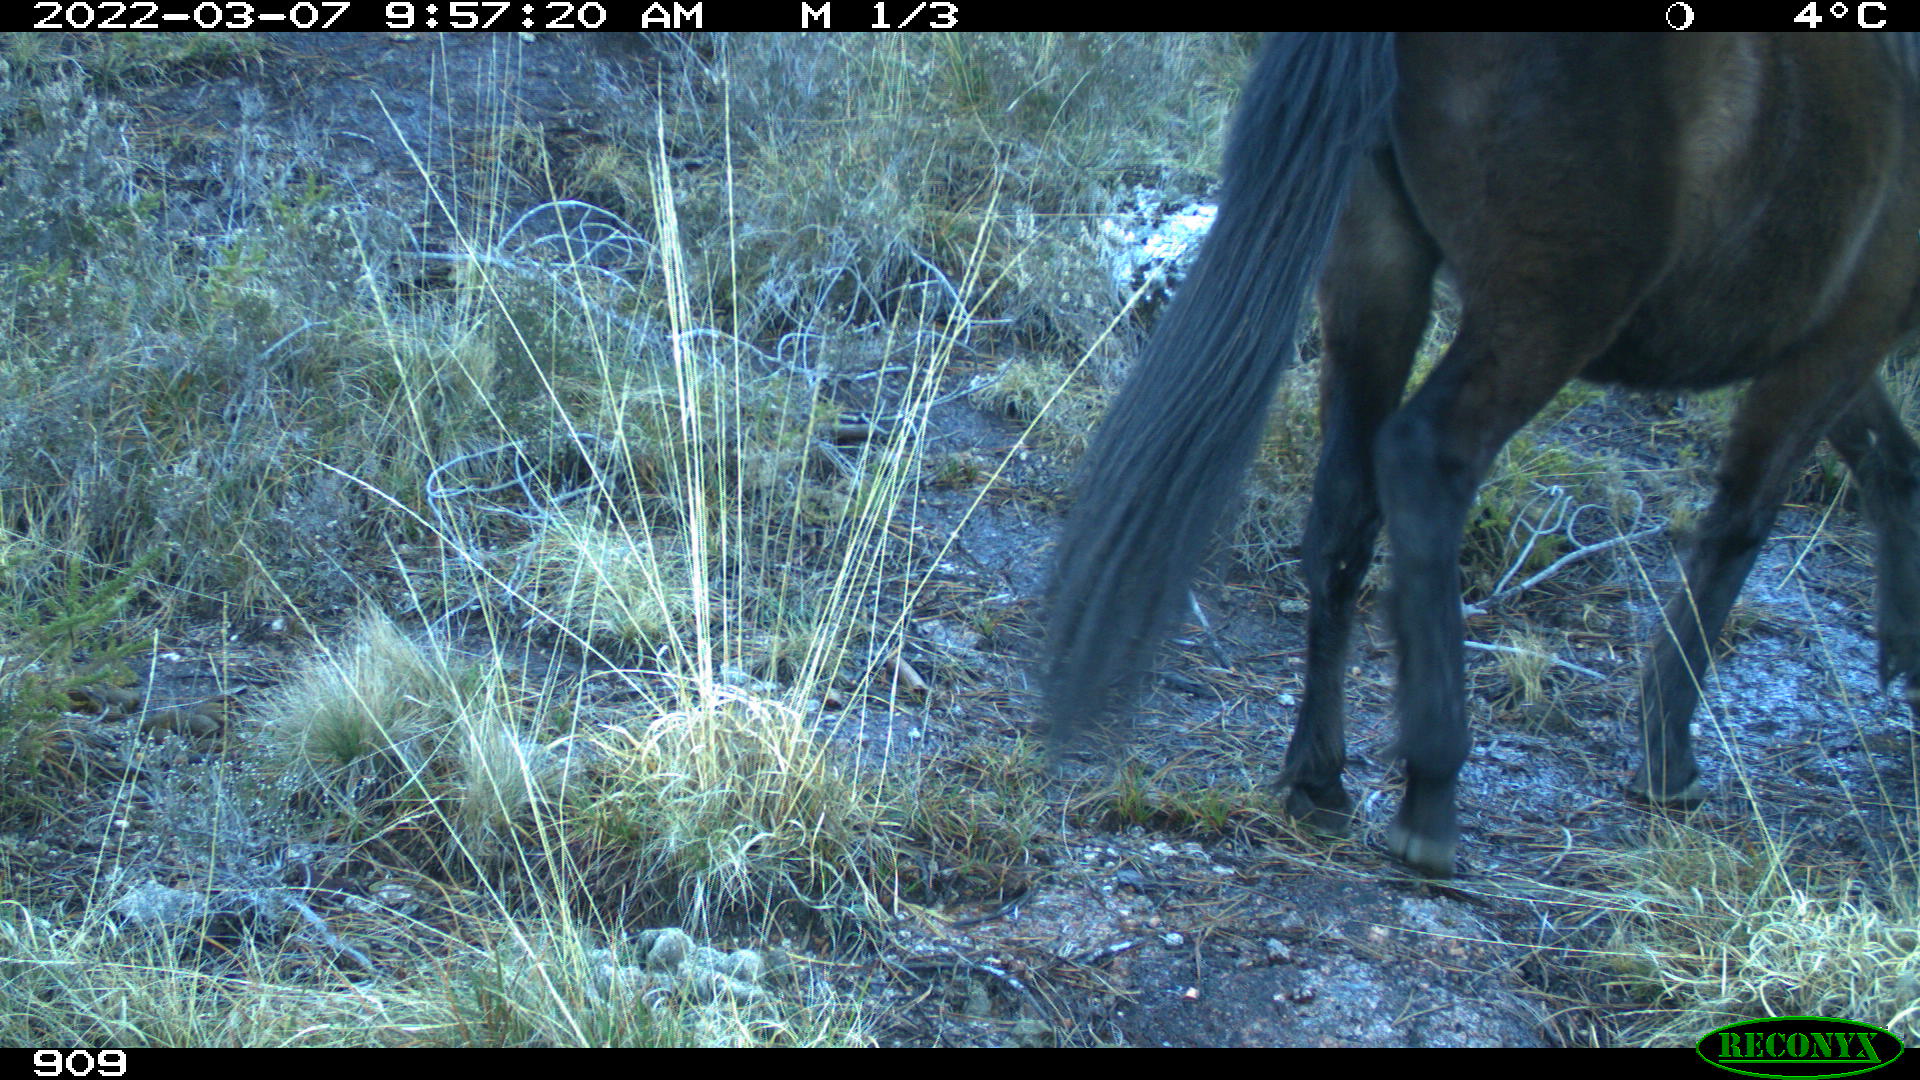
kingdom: Animalia
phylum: Chordata
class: Mammalia
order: Perissodactyla
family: Equidae
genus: Equus
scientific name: Equus caballus
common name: Horse
